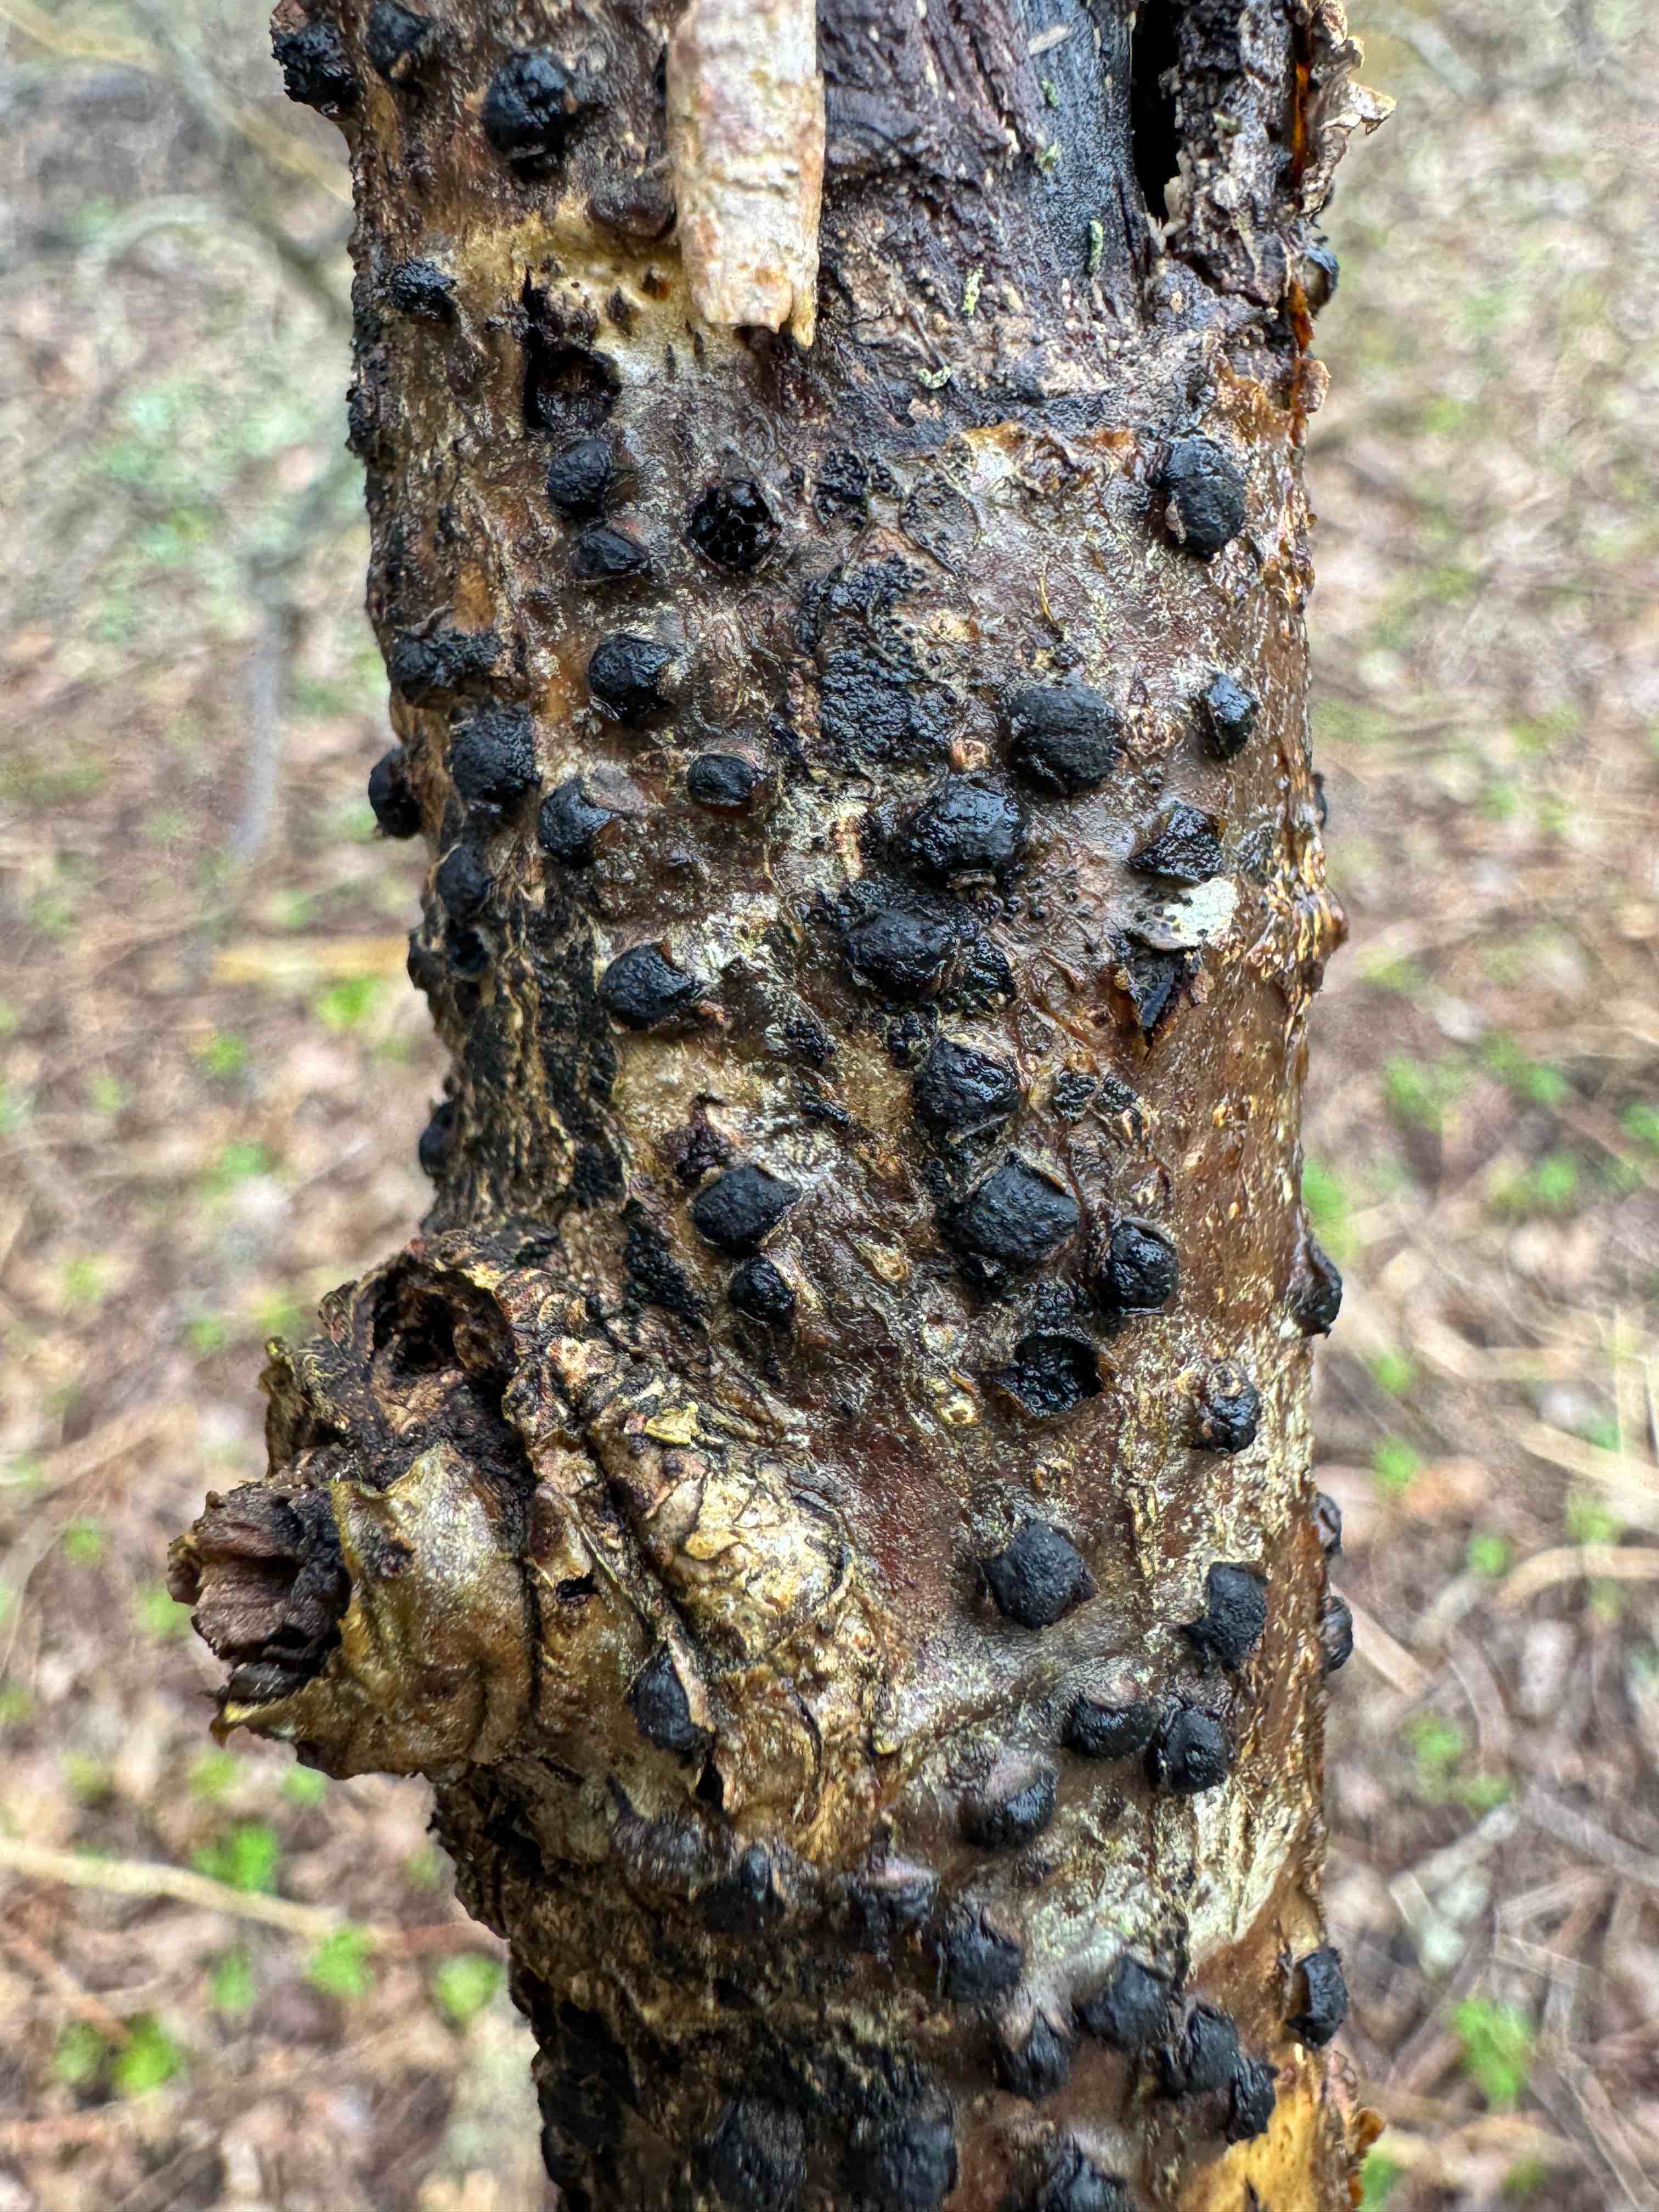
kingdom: Fungi
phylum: Ascomycota
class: Sordariomycetes
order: Xylariales
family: Diatrypaceae
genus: Diatrypella
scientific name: Diatrypella quercina
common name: ege-kulskorpe
